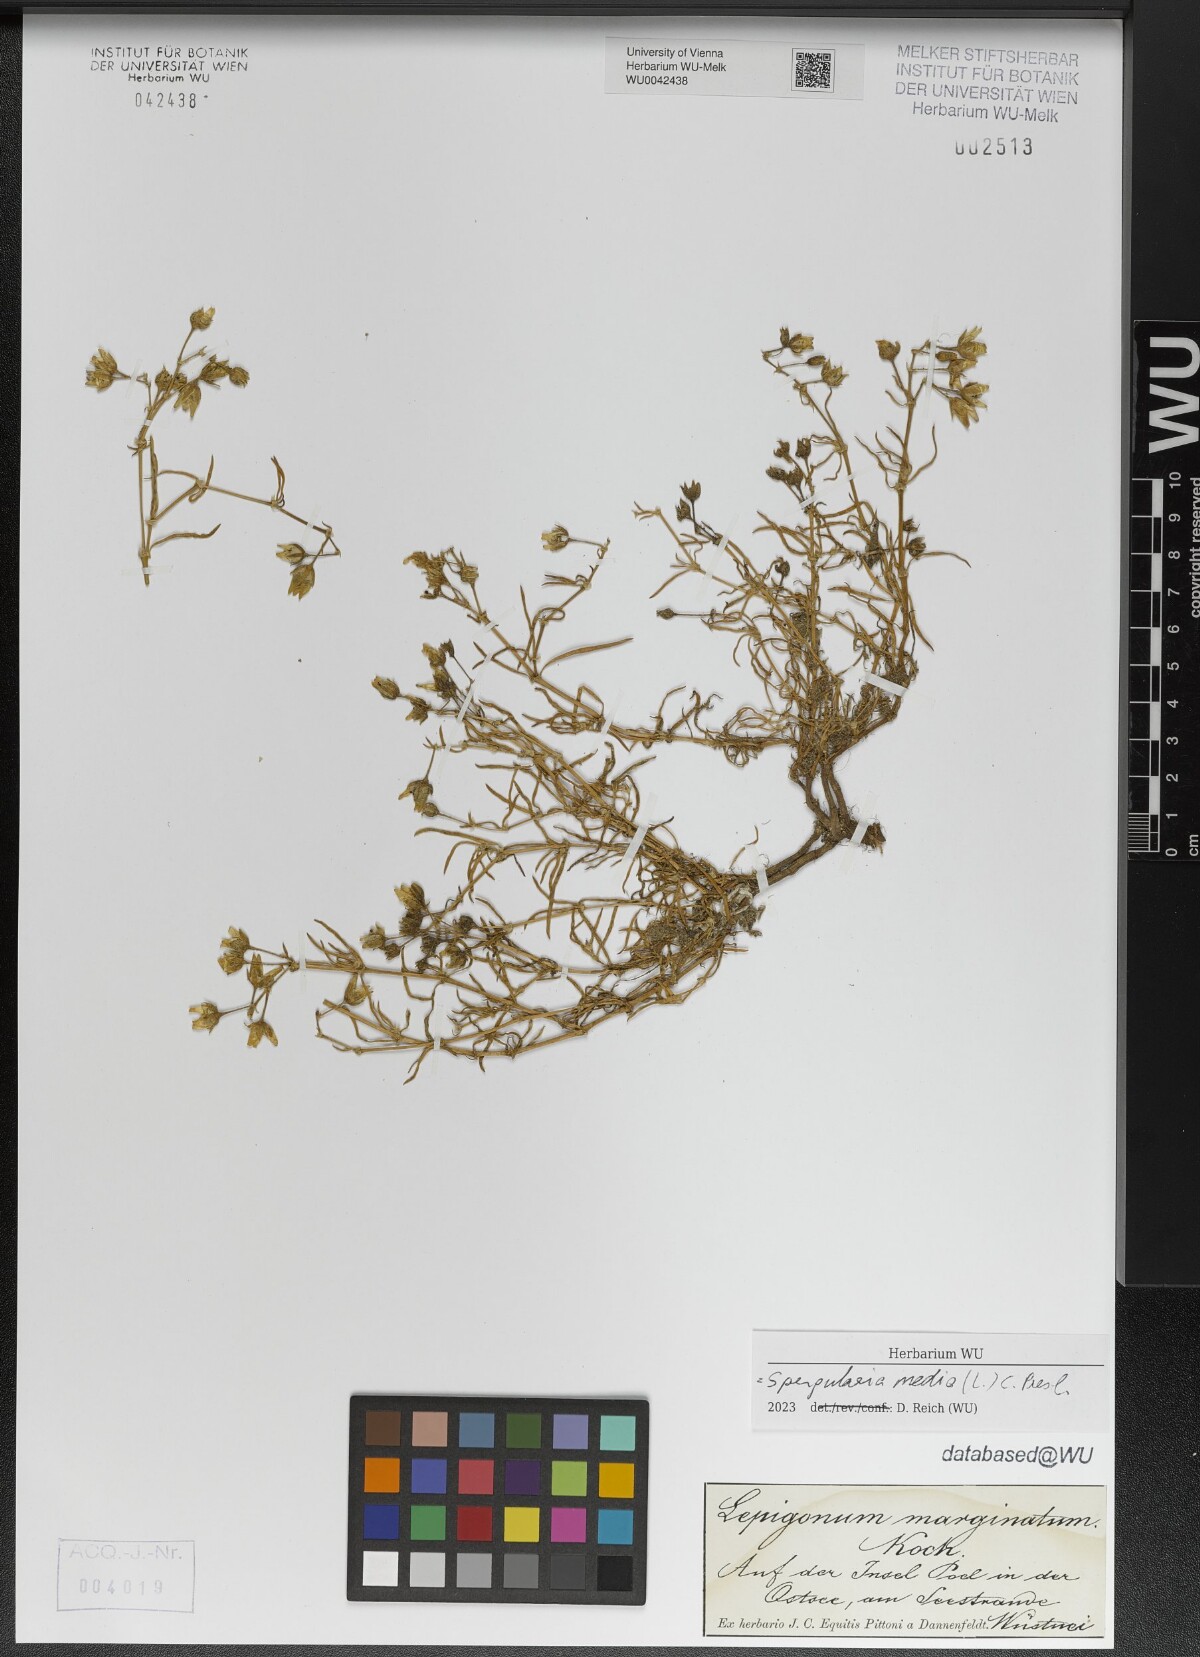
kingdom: Plantae
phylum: Tracheophyta
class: Magnoliopsida
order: Caryophyllales
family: Caryophyllaceae
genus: Spergularia
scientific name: Spergularia media
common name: Greater sea-spurrey
